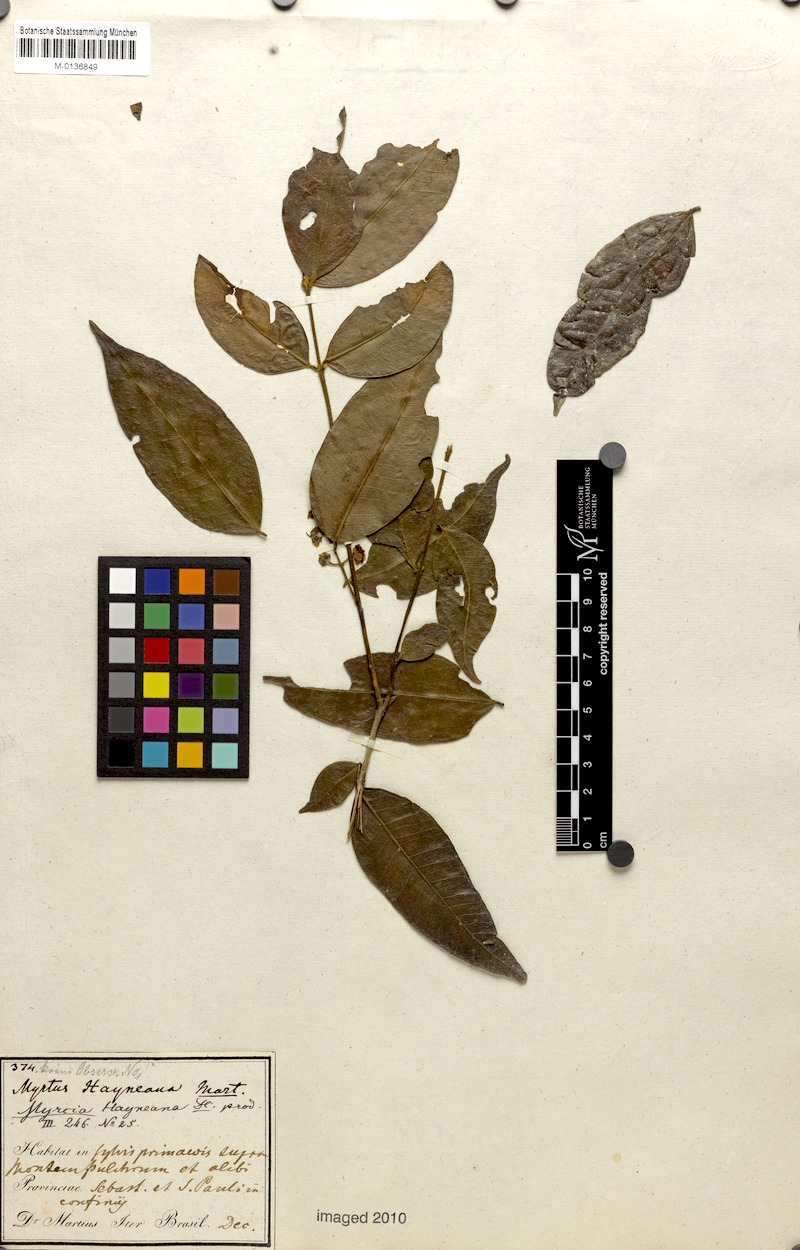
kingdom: Plantae
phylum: Tracheophyta
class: Magnoliopsida
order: Myrtales
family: Myrtaceae
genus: Myrcia
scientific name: Myrcia splendens
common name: Surinam cherry
